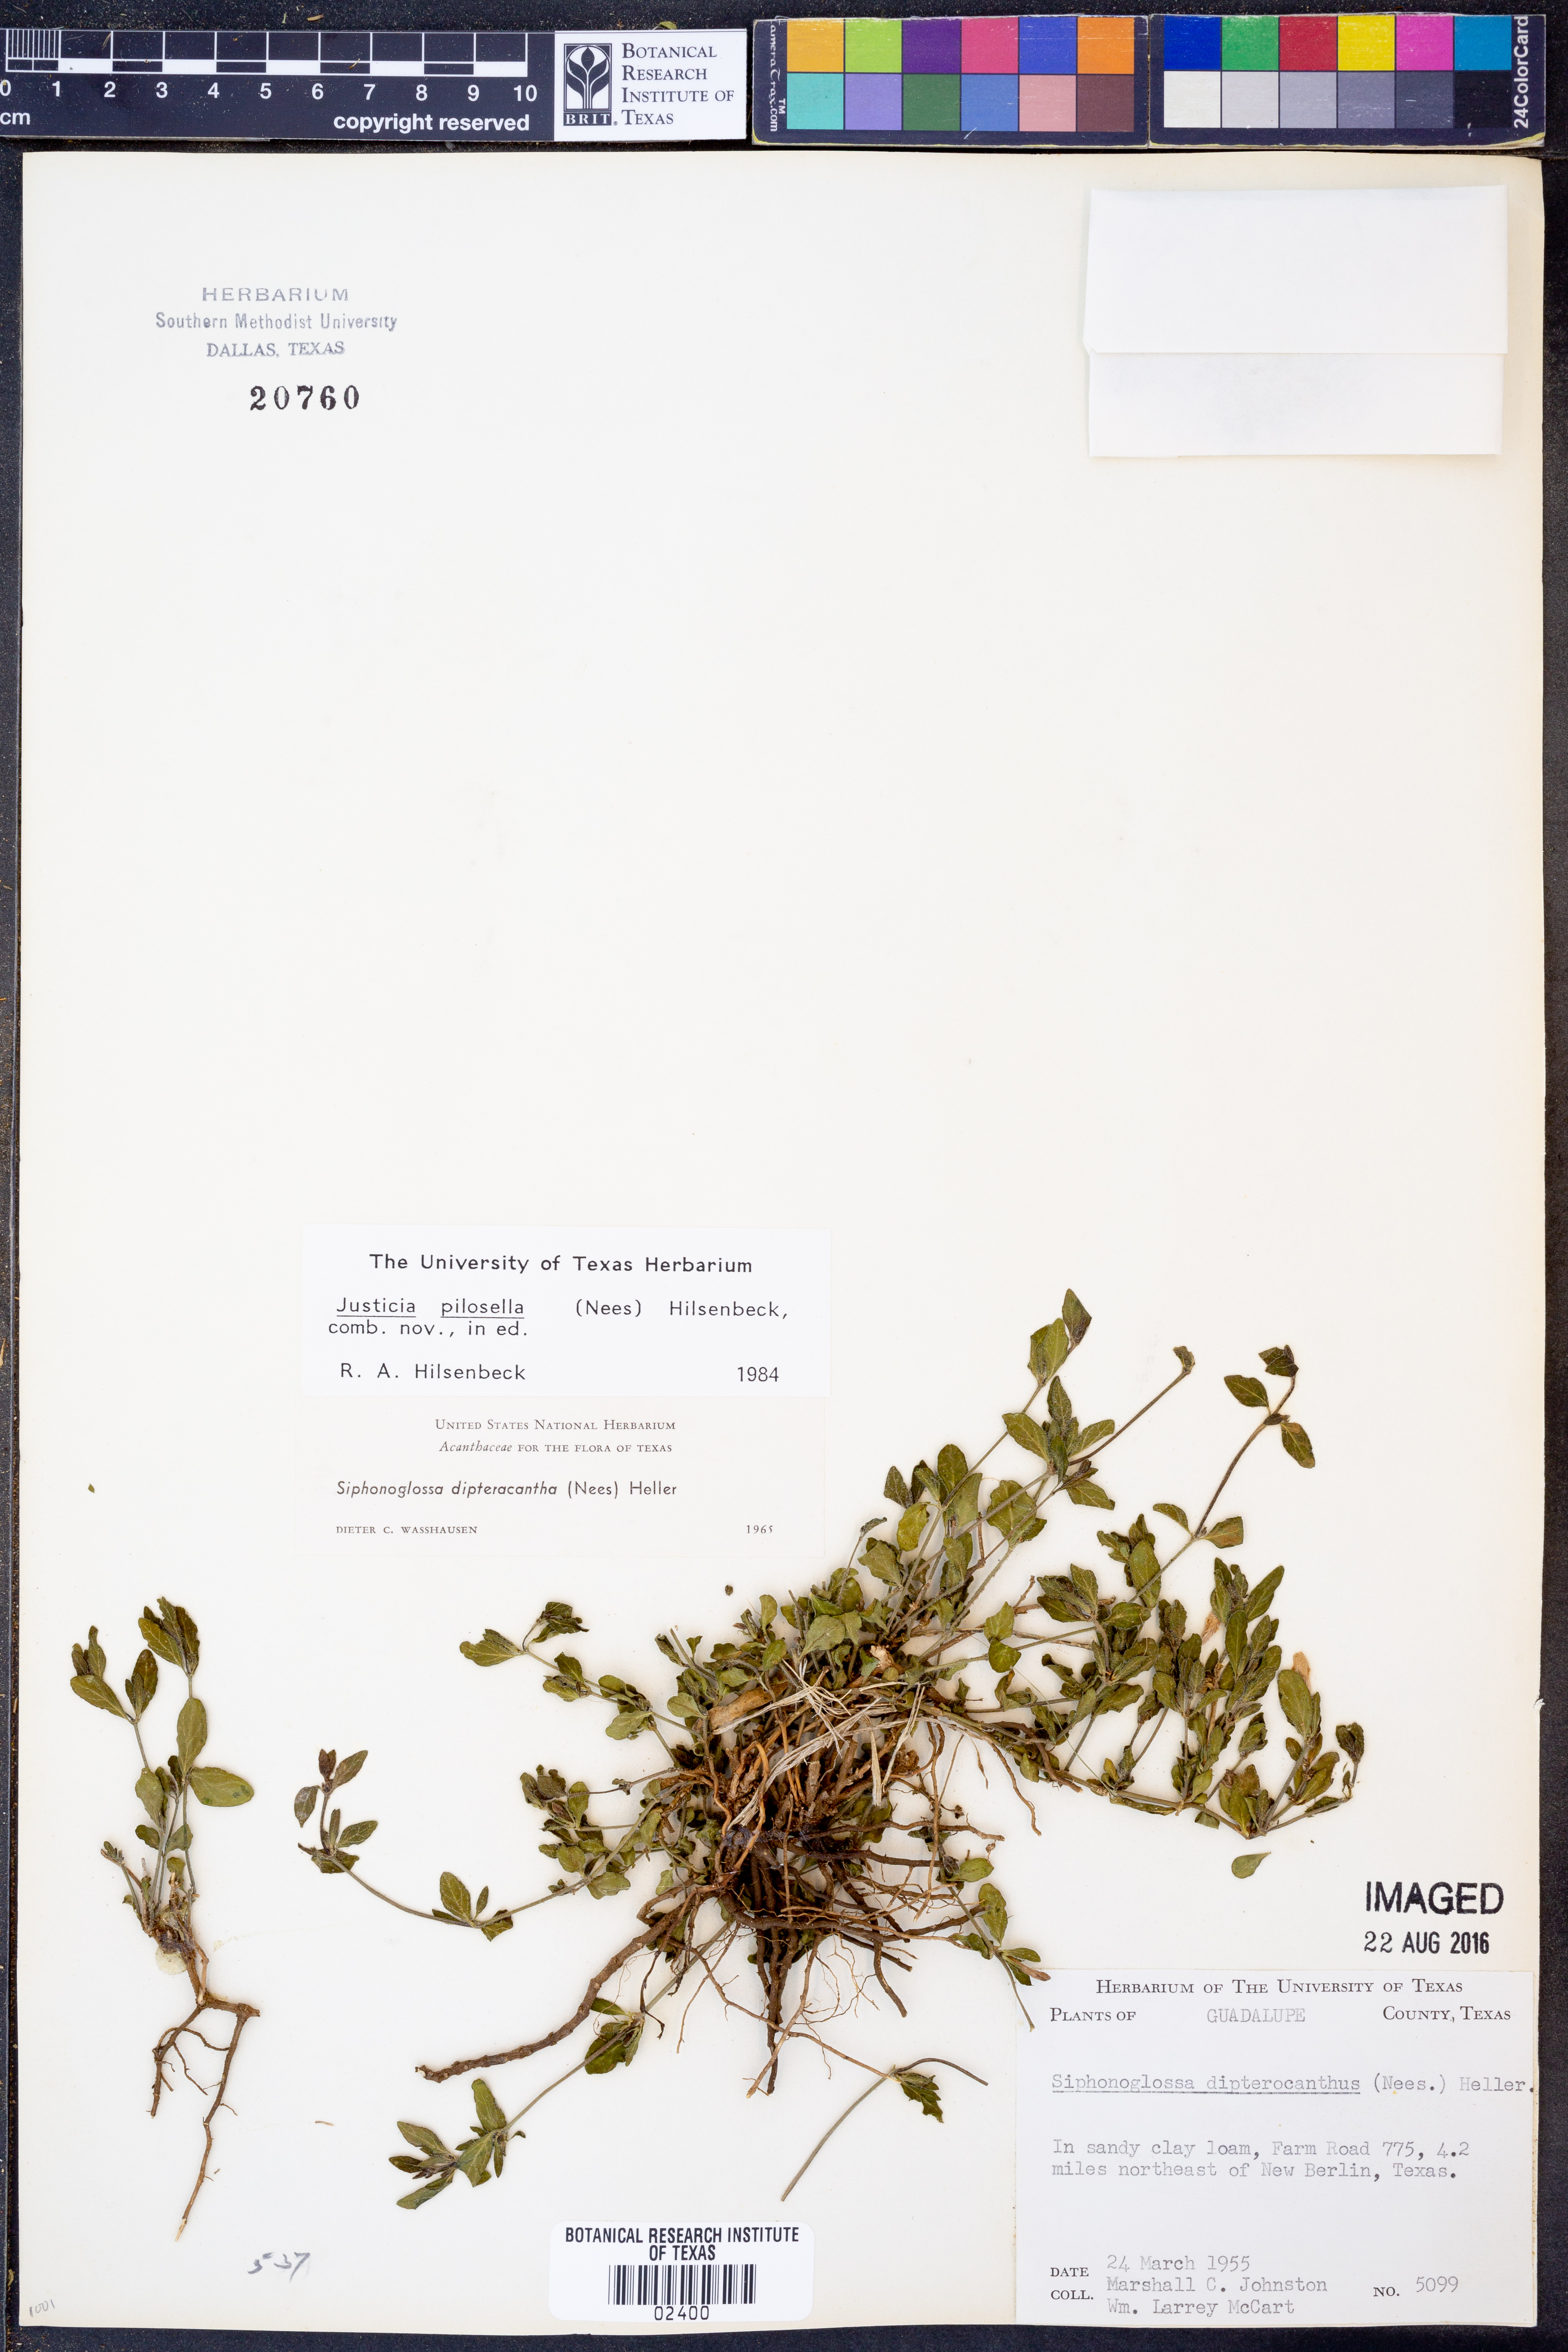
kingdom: Plantae
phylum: Tracheophyta
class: Magnoliopsida
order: Lamiales
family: Acanthaceae
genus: Justicia
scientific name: Justicia pilosella
